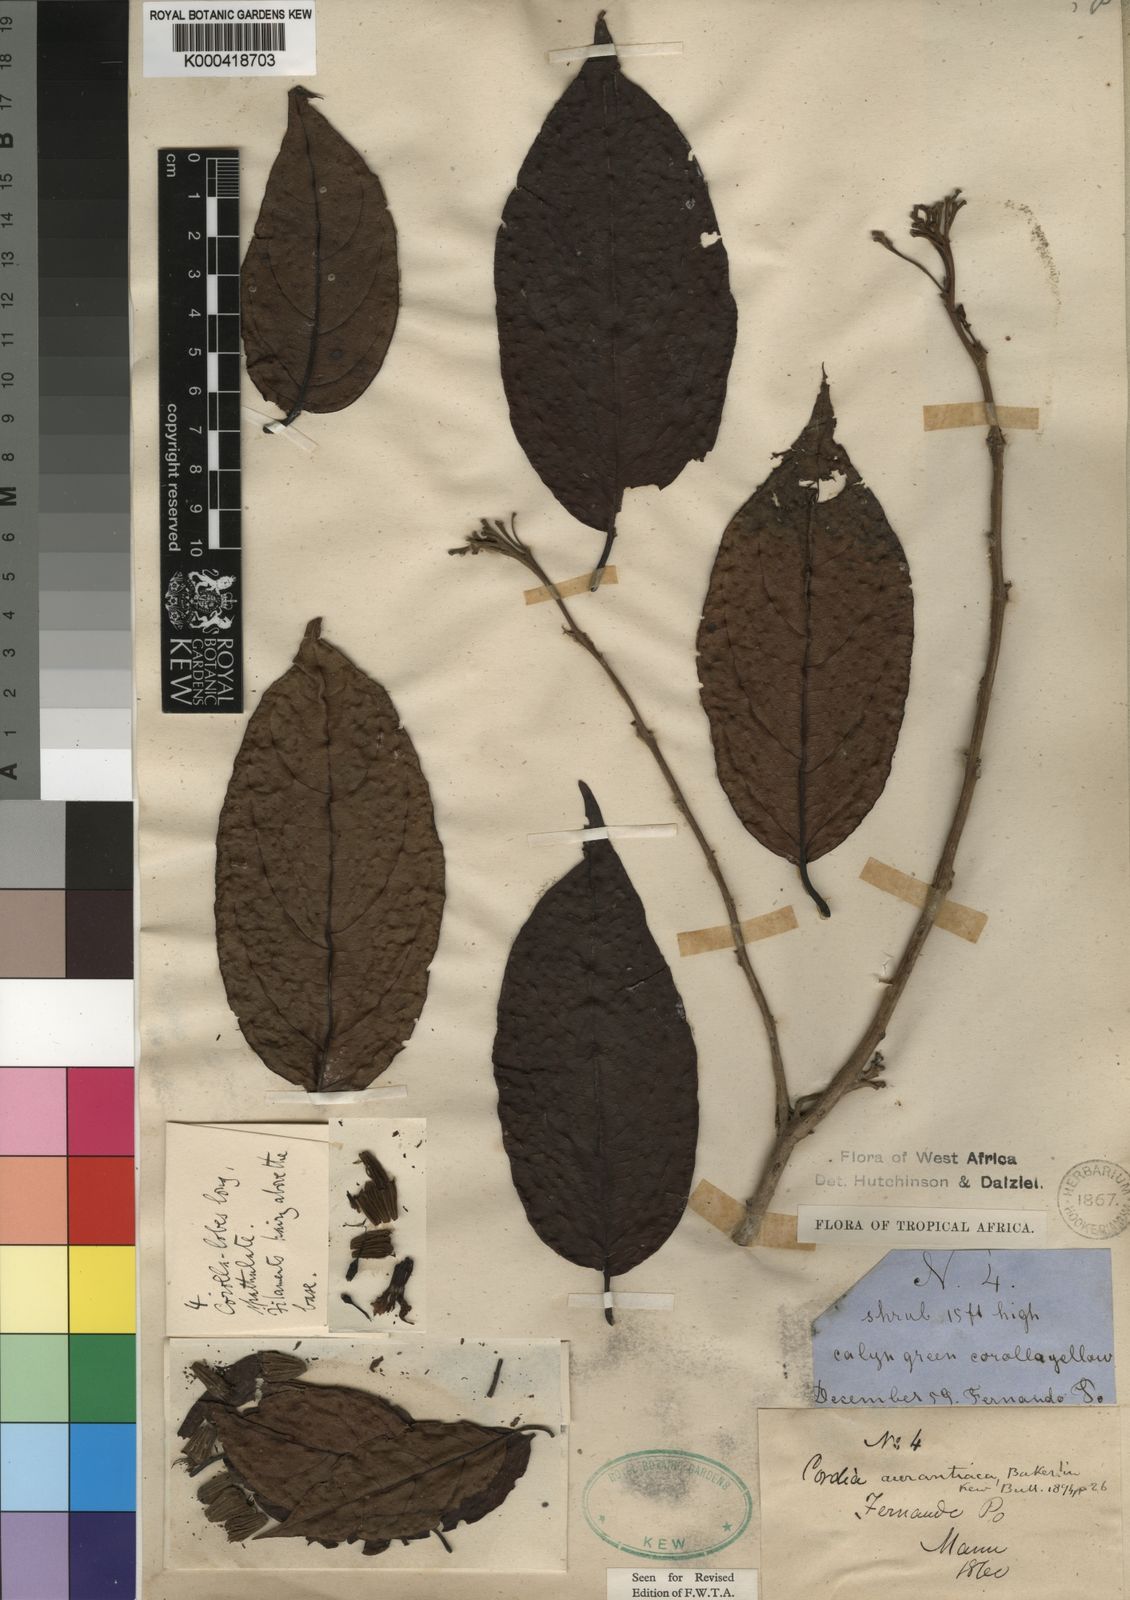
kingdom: Plantae
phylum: Tracheophyta
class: Magnoliopsida
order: Boraginales
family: Cordiaceae
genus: Cordia
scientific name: Cordia aurantiaca
